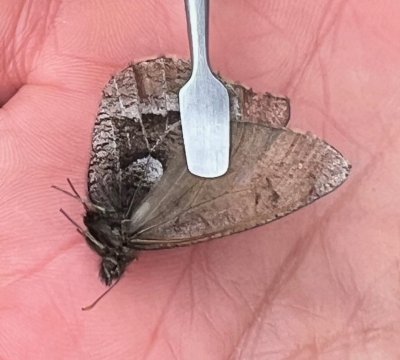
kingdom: Animalia
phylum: Arthropoda
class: Insecta
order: Lepidoptera
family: Nymphalidae
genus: Oeneis
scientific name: Oeneis bore
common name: White-veined Arctic
